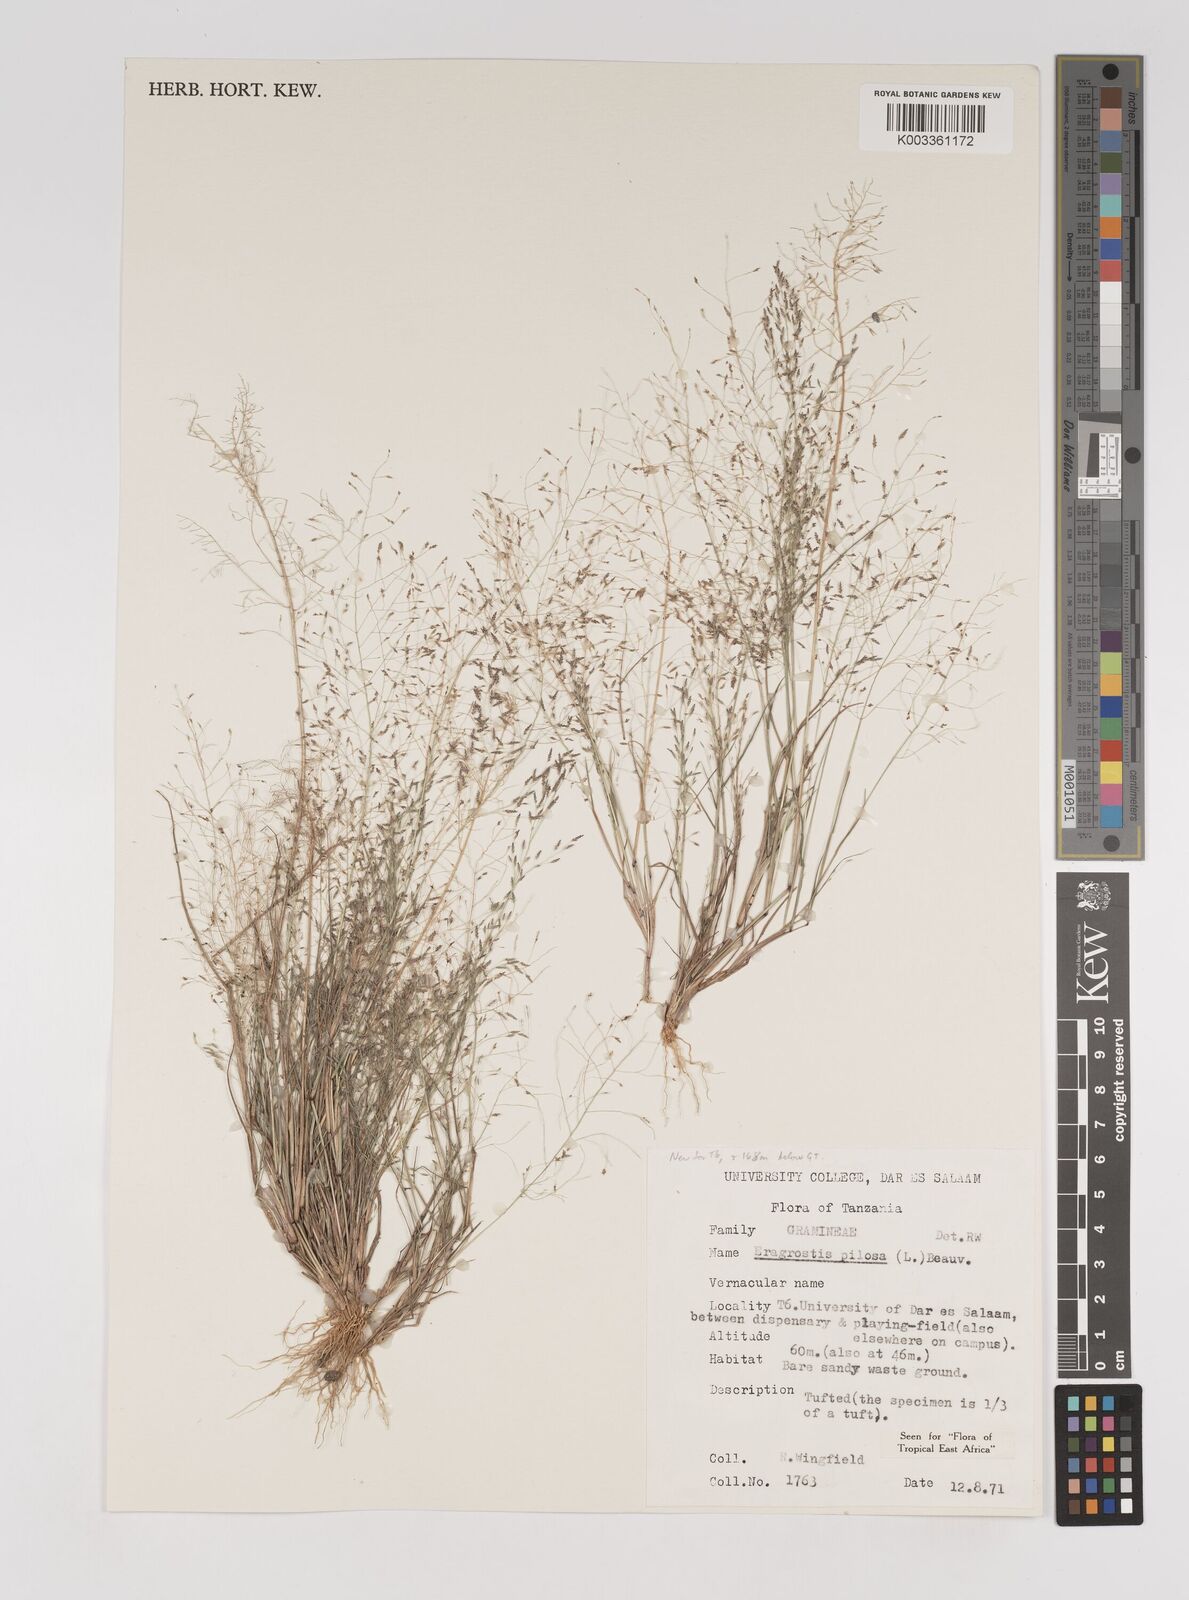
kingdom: Plantae
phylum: Tracheophyta
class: Liliopsida
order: Poales
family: Poaceae
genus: Eragrostis
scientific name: Eragrostis pilosa
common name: Indian lovegrass
